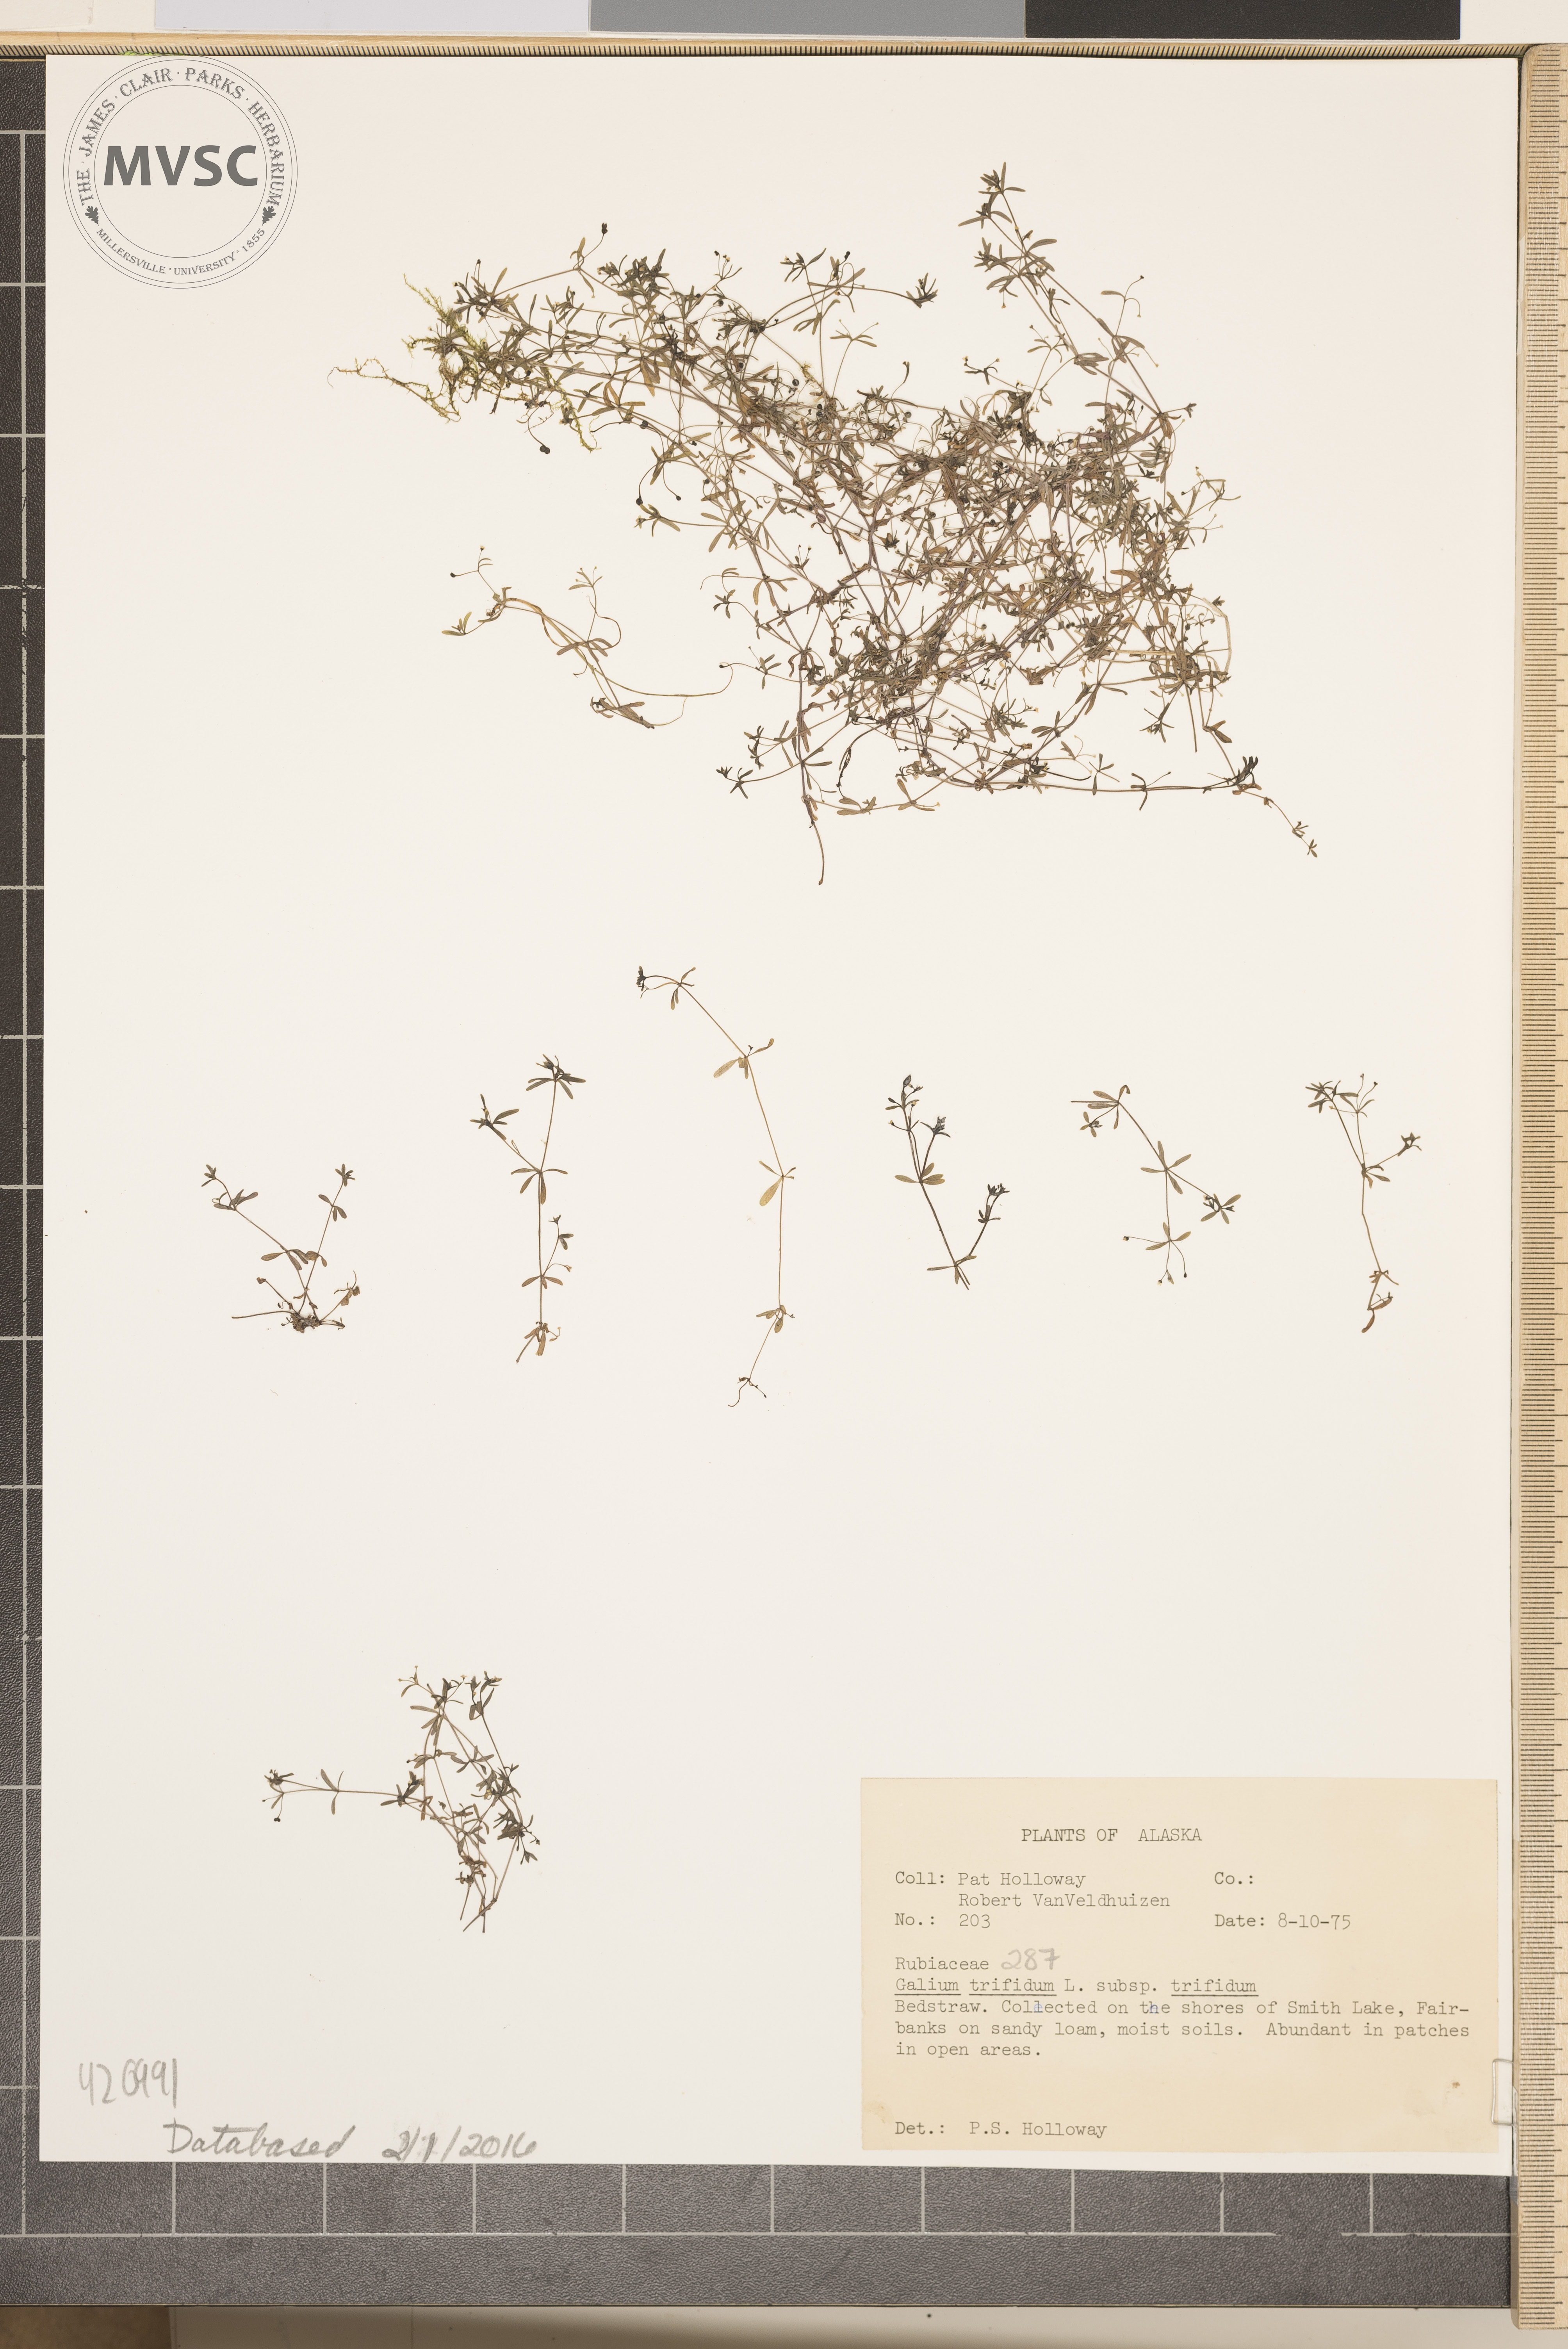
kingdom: Plantae
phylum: Tracheophyta
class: Magnoliopsida
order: Gentianales
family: Rubiaceae
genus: Galium
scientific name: Galium trifidum
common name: Bedstraw
